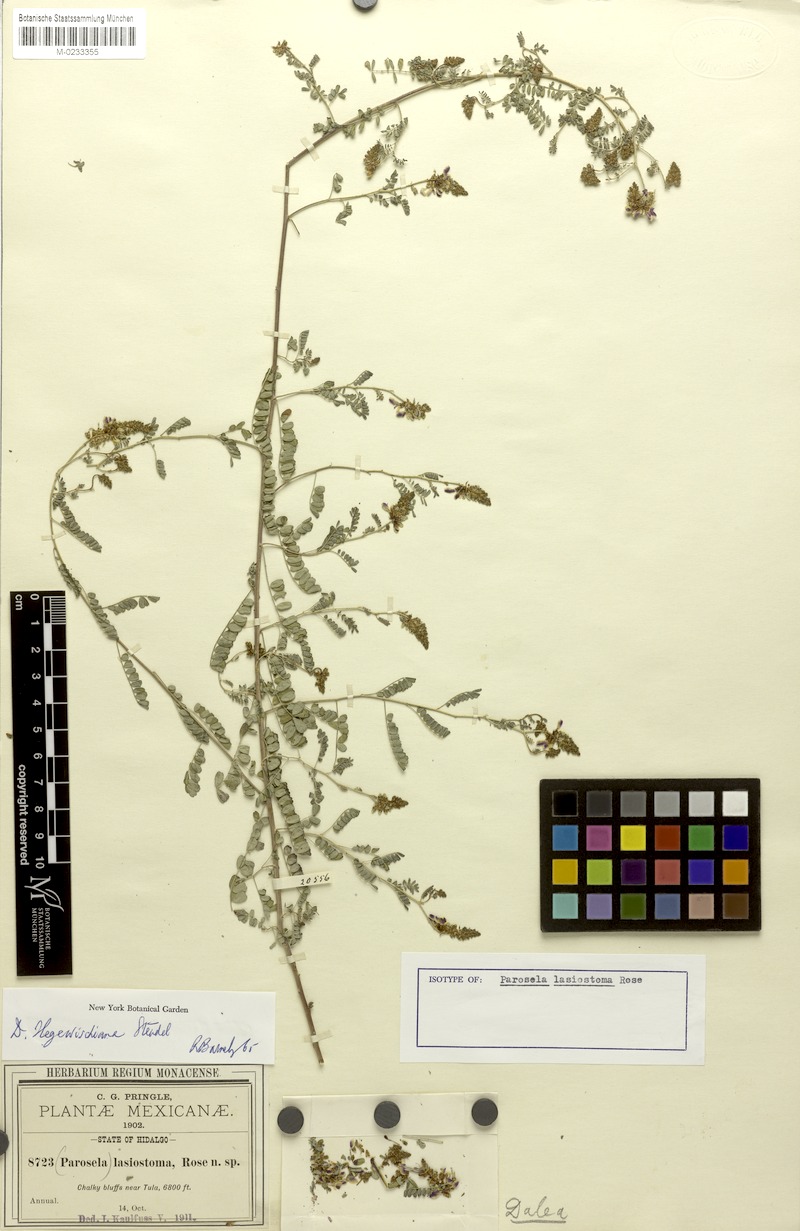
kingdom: Plantae
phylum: Tracheophyta
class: Magnoliopsida
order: Fabales
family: Fabaceae
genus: Dalea
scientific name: Dalea hegewischiana
